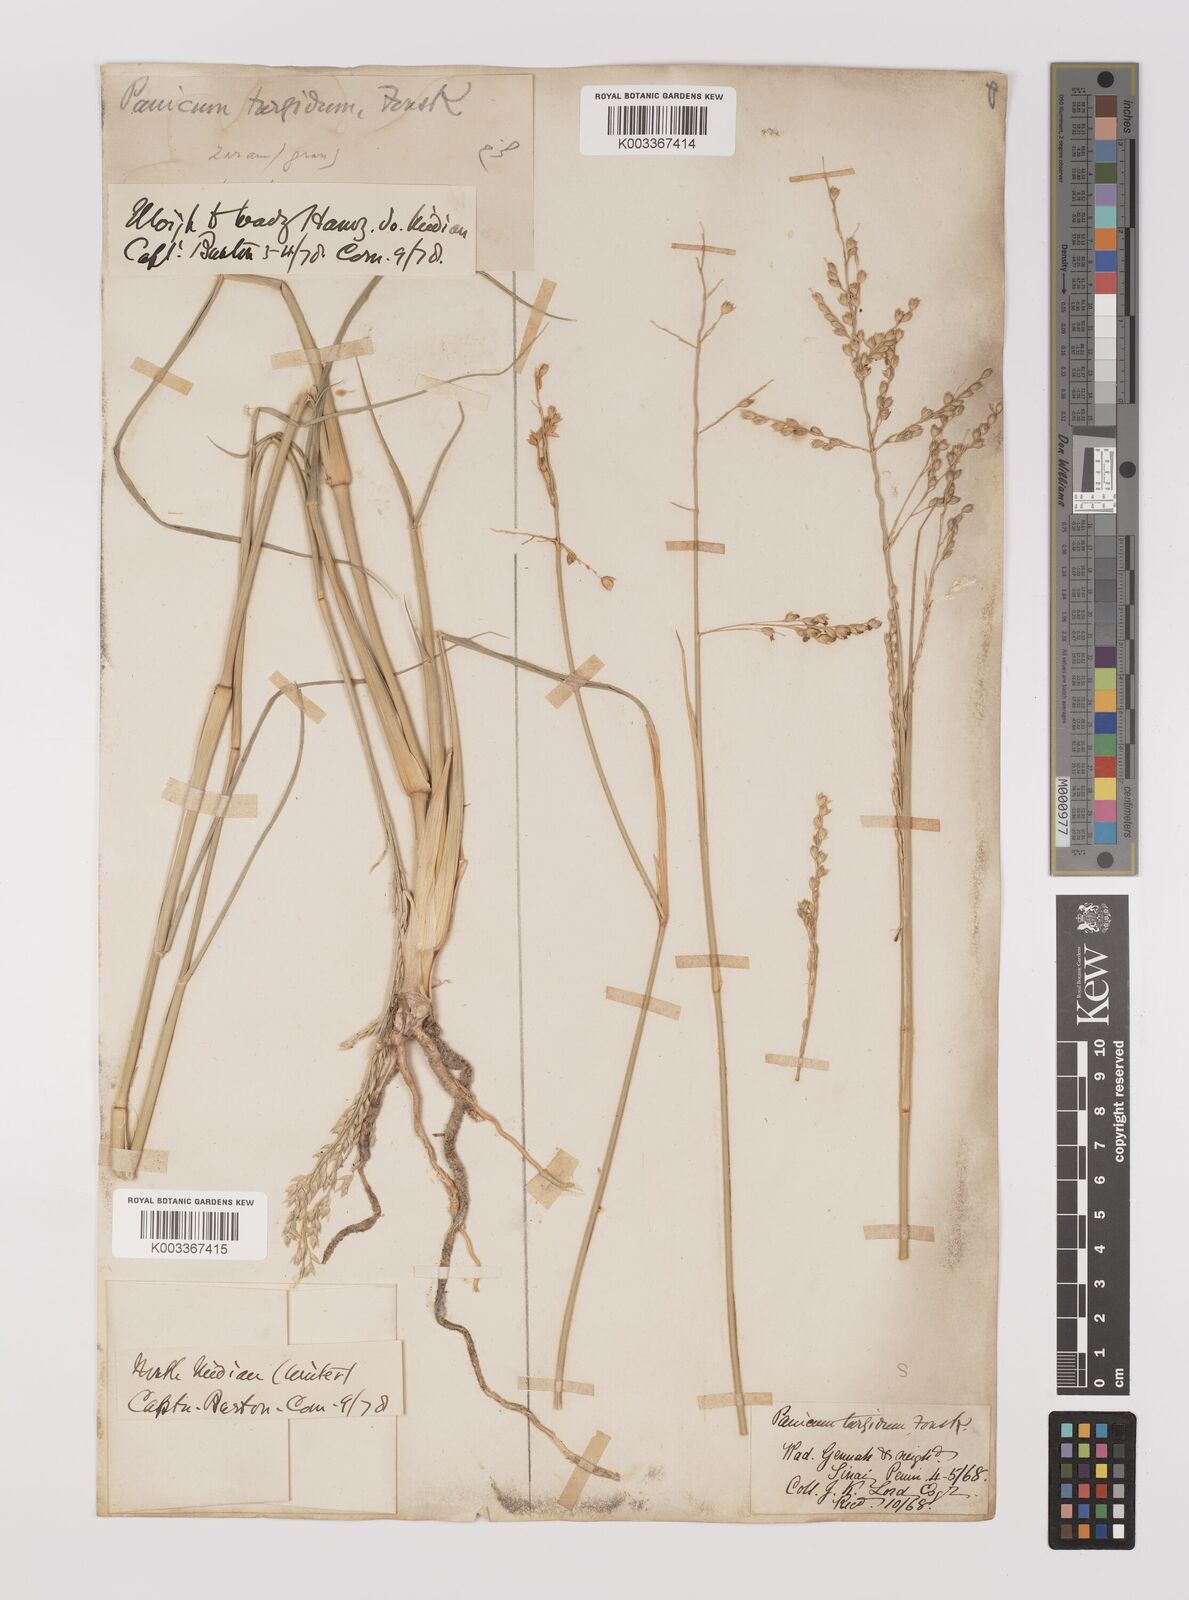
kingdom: Plantae
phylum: Tracheophyta
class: Liliopsida
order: Poales
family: Poaceae
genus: Panicum
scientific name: Panicum turgidum
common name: Desert grass
